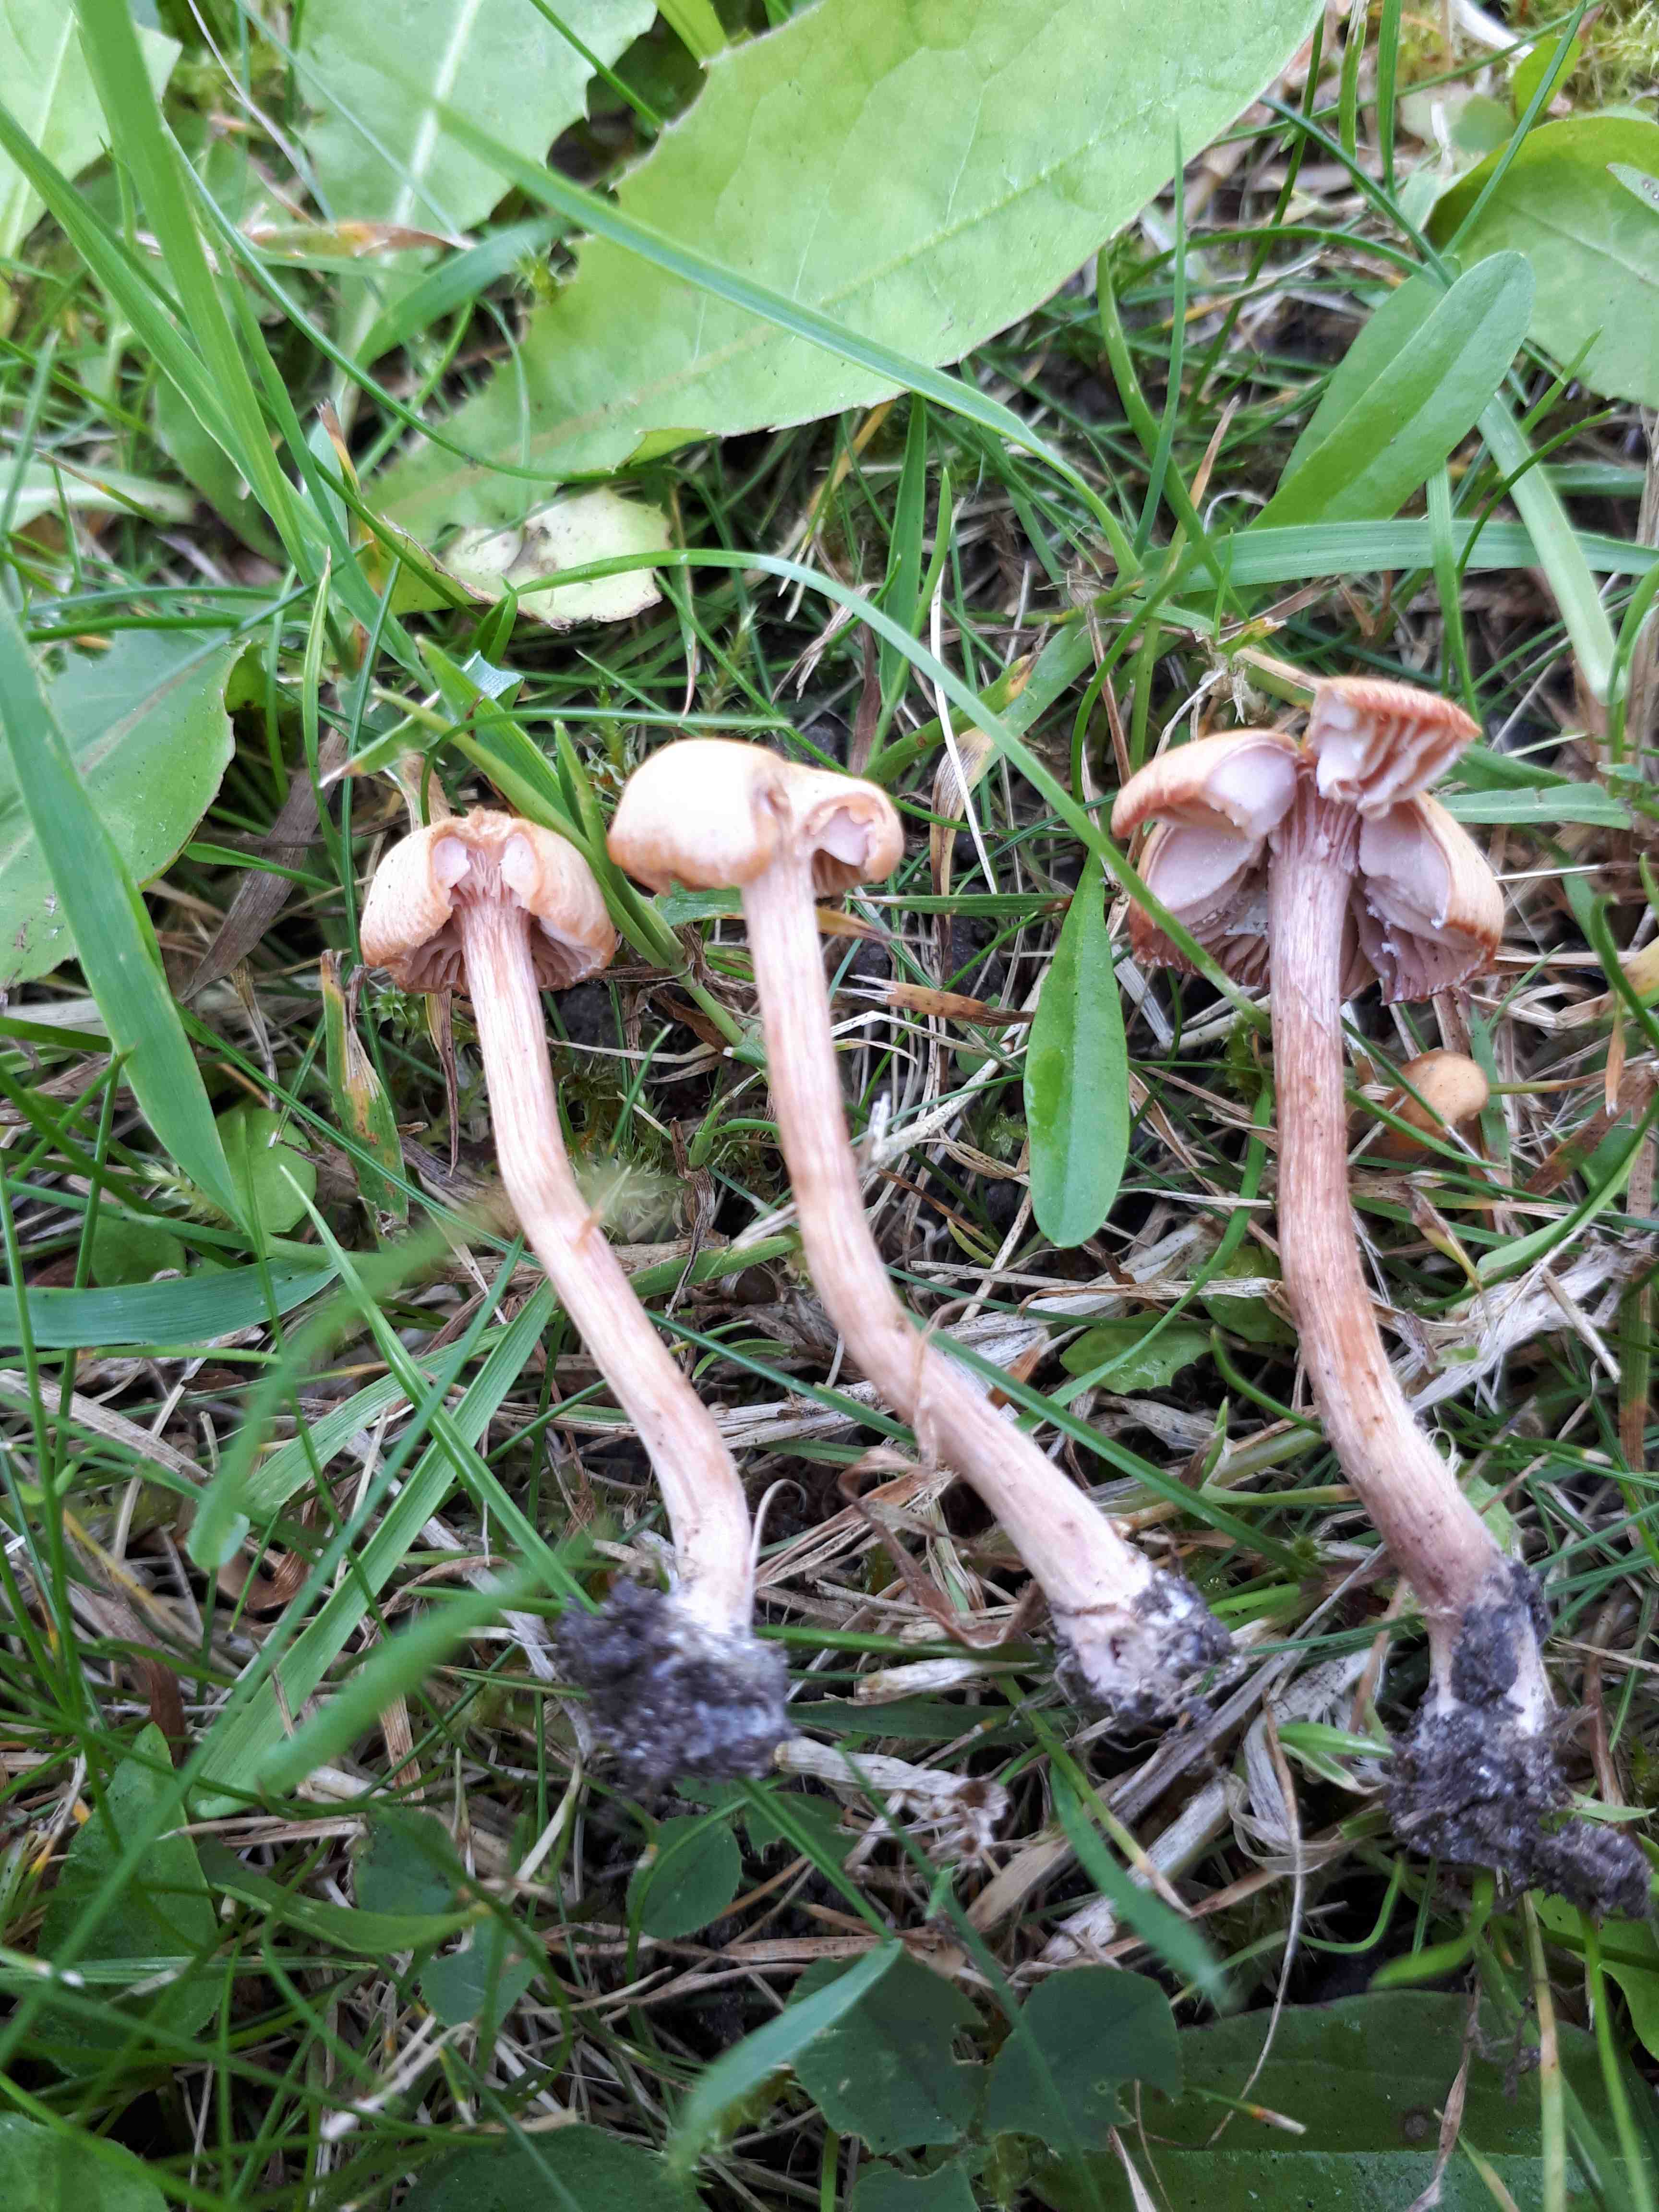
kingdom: Fungi
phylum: Basidiomycota
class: Agaricomycetes
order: Agaricales
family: Hydnangiaceae
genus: Laccaria
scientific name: Laccaria laccata
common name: rød ametysthat
